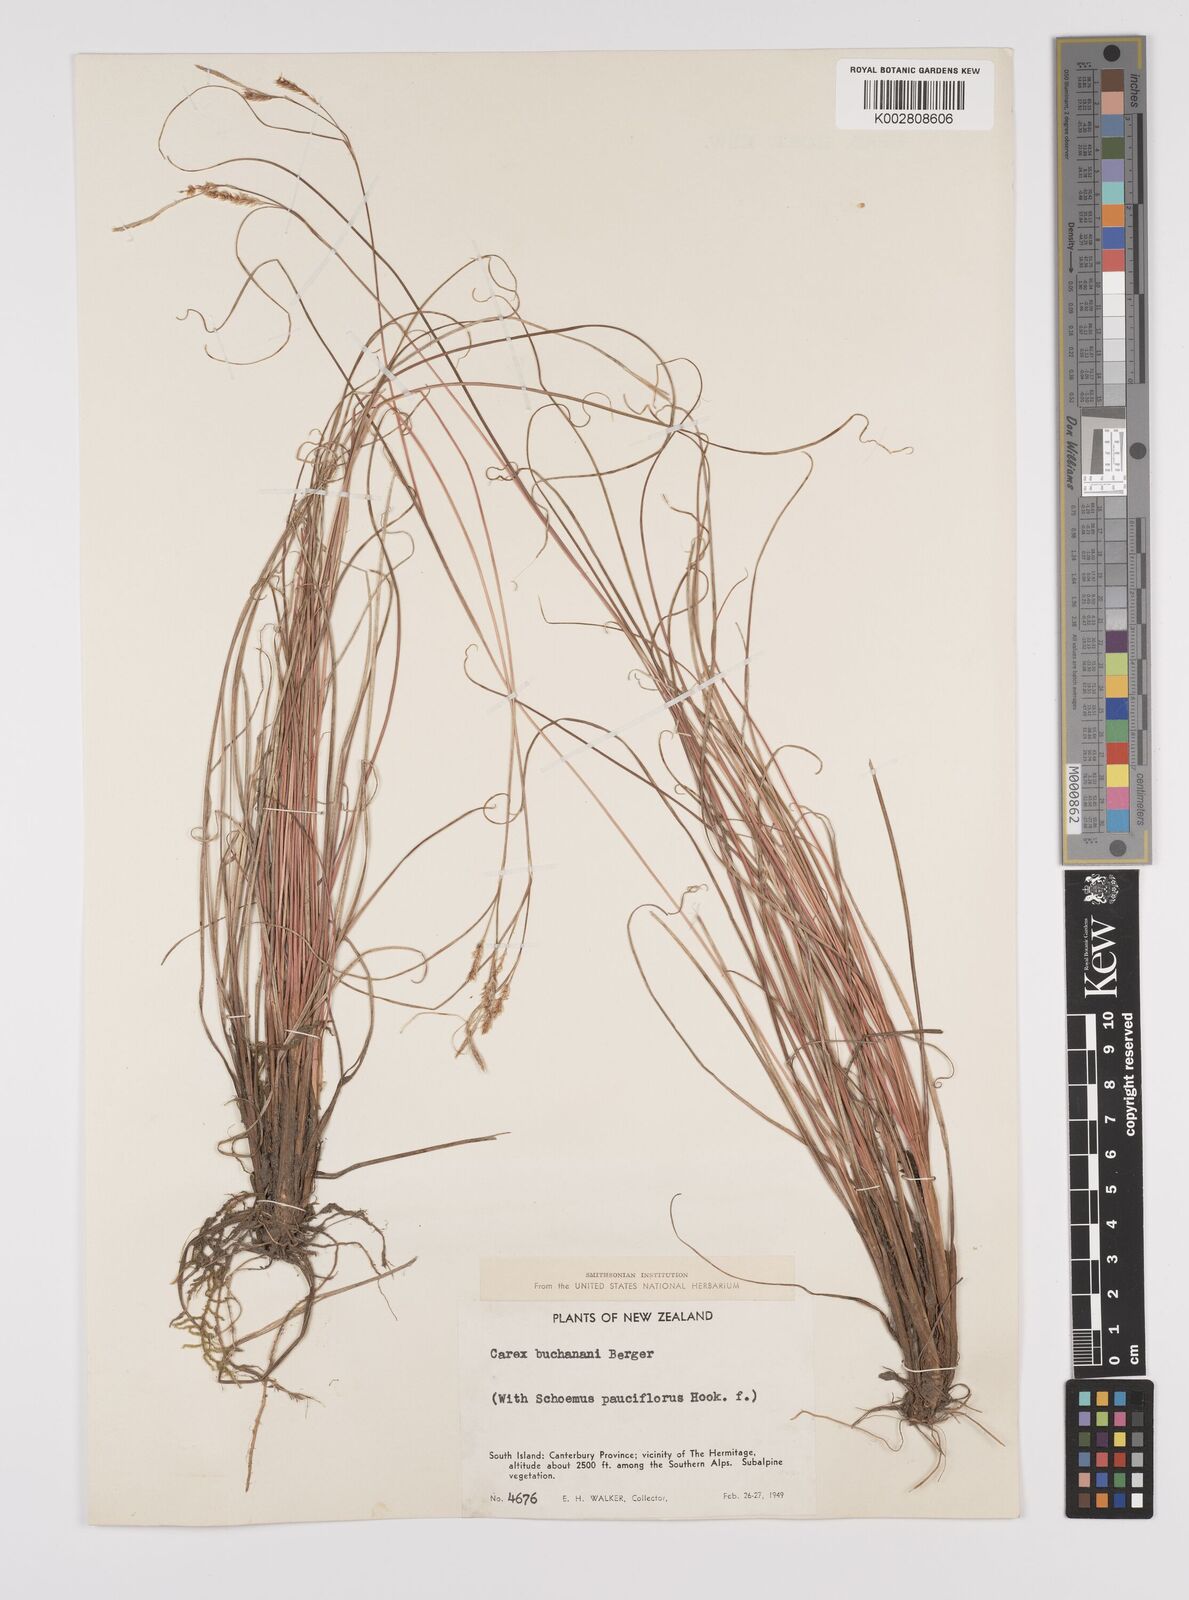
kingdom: Plantae
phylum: Tracheophyta
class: Liliopsida
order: Poales
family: Cyperaceae
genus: Carex
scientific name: Carex flagellifera
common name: Glen murray tussock
